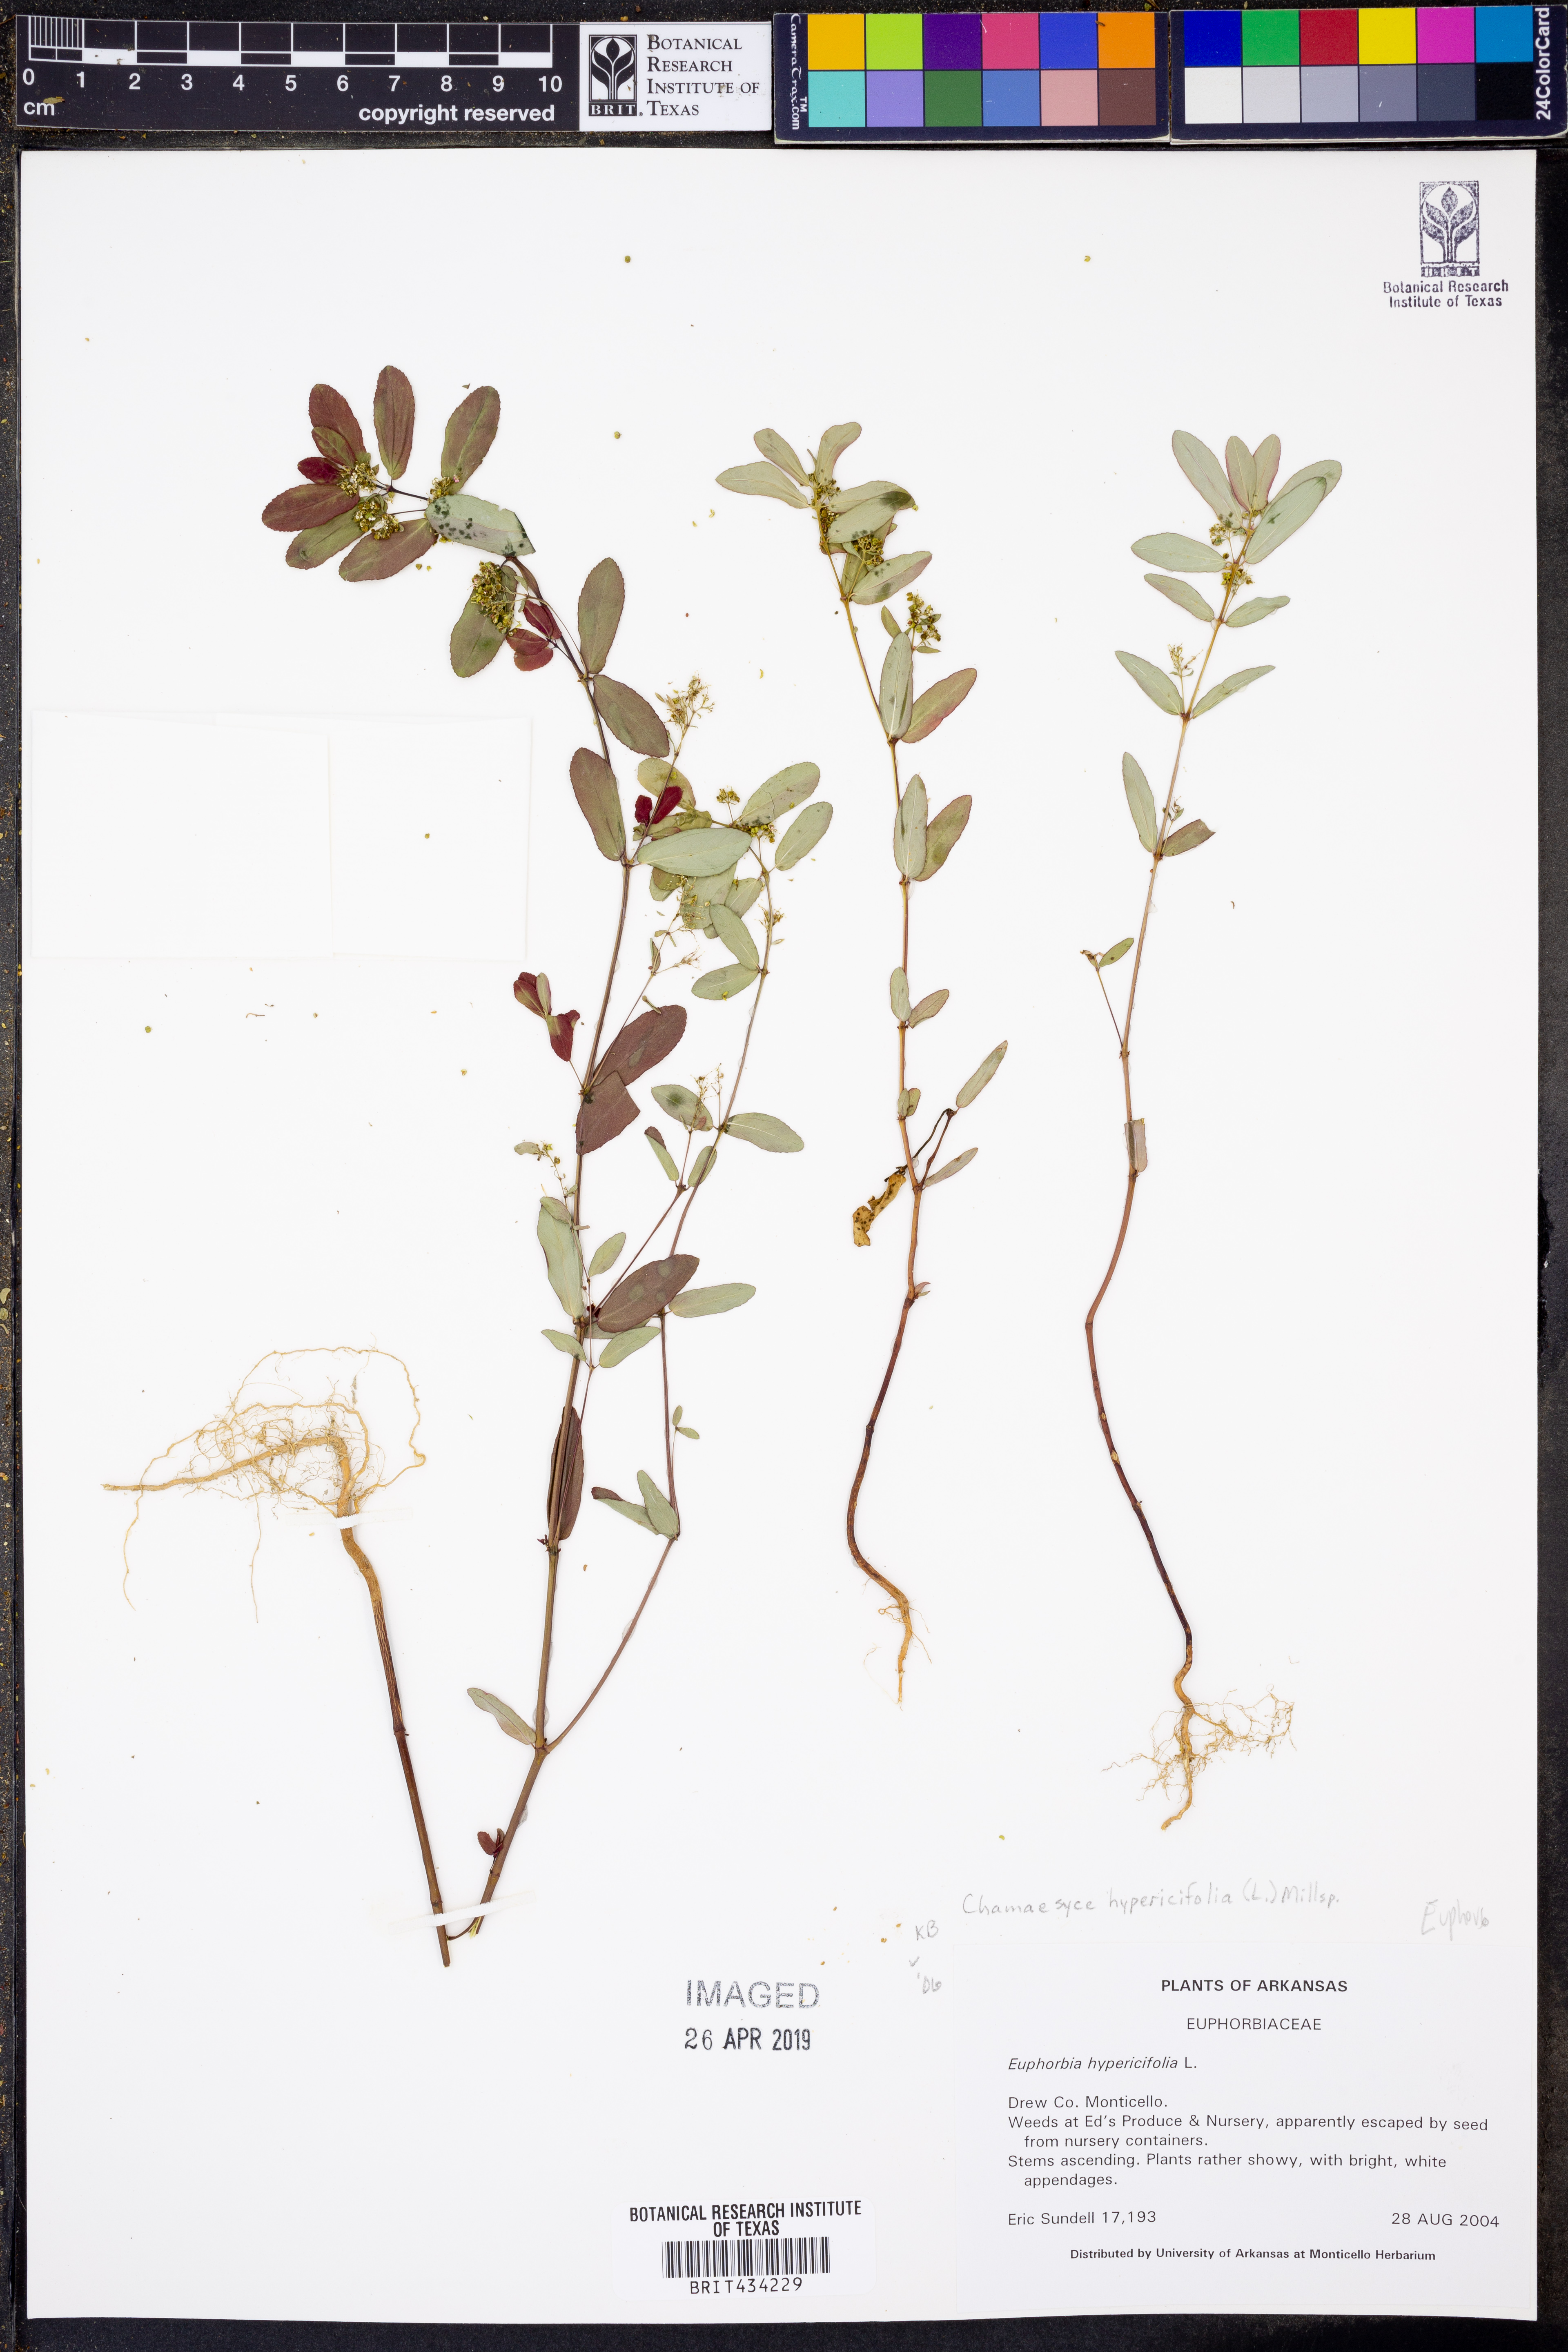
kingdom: Plantae
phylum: Tracheophyta
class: Magnoliopsida
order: Malpighiales
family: Euphorbiaceae
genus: Euphorbia
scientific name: Euphorbia hypericifolia
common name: Graceful sandmat
